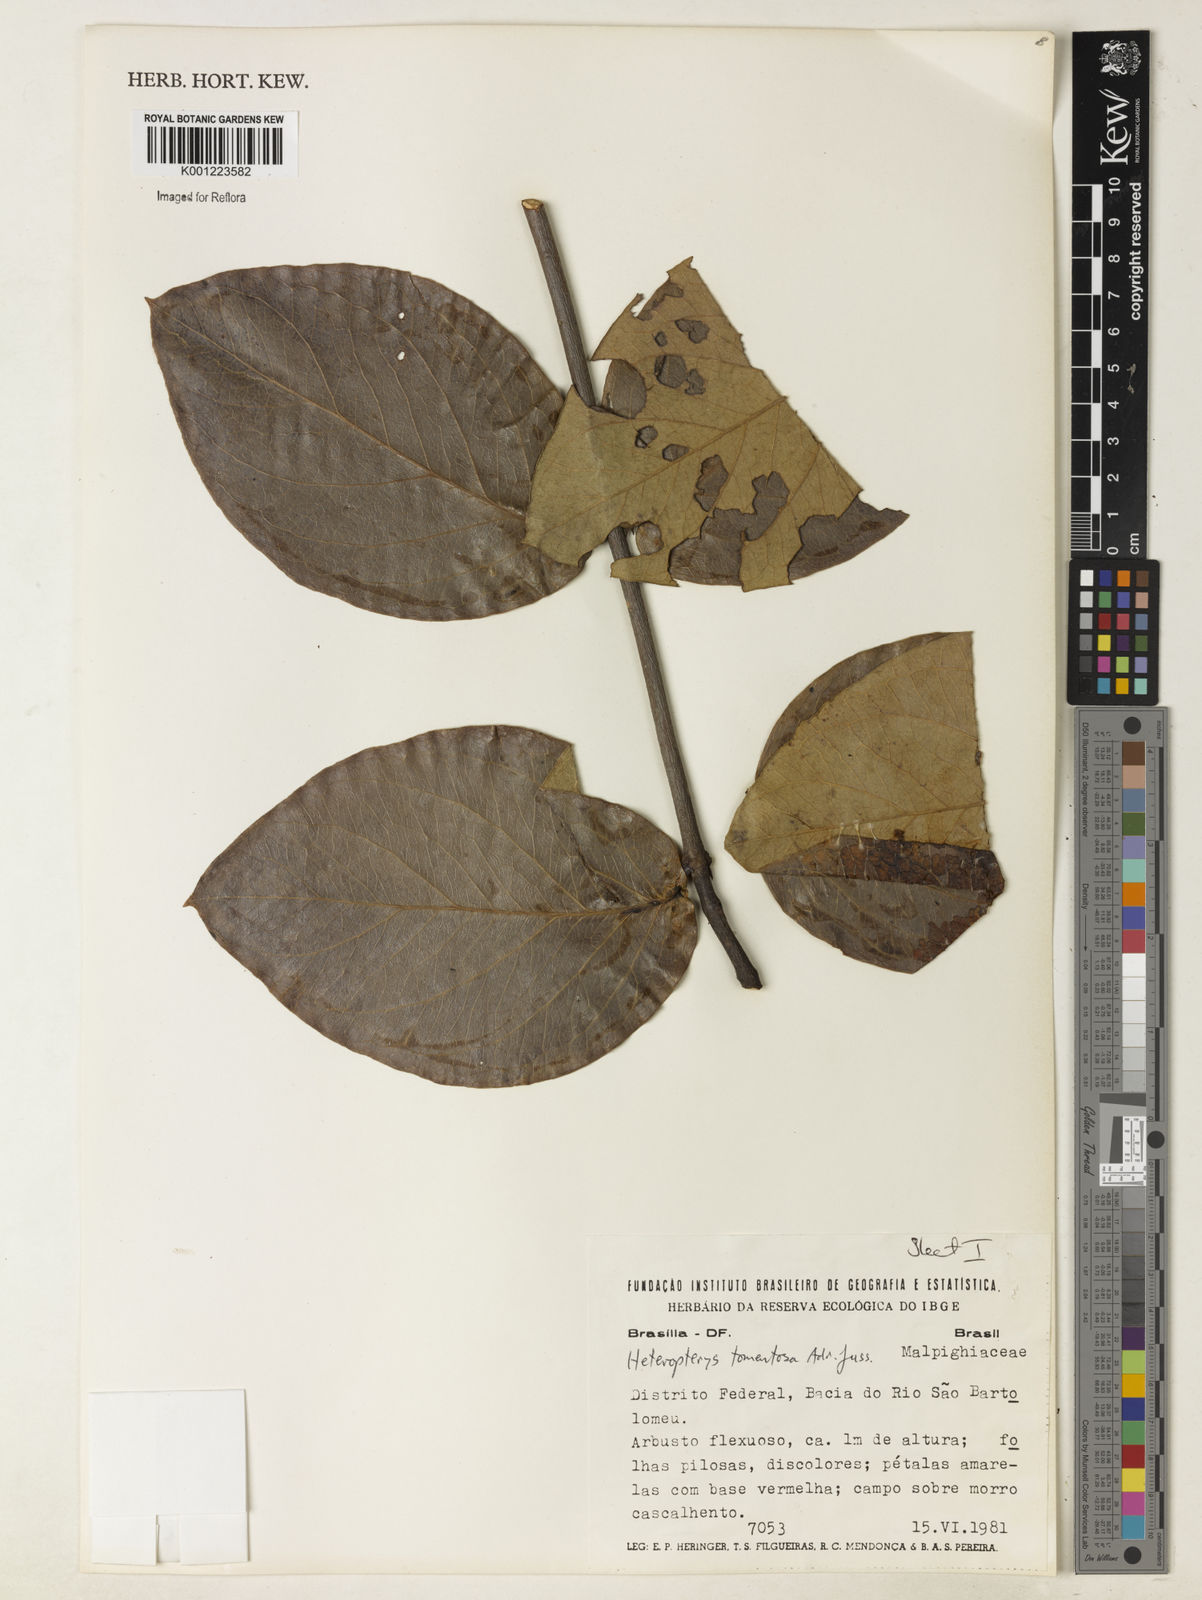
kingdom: Plantae
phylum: Tracheophyta
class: Magnoliopsida
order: Malpighiales
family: Malpighiaceae
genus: Heteropterys
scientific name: Heteropterys tomentosa
